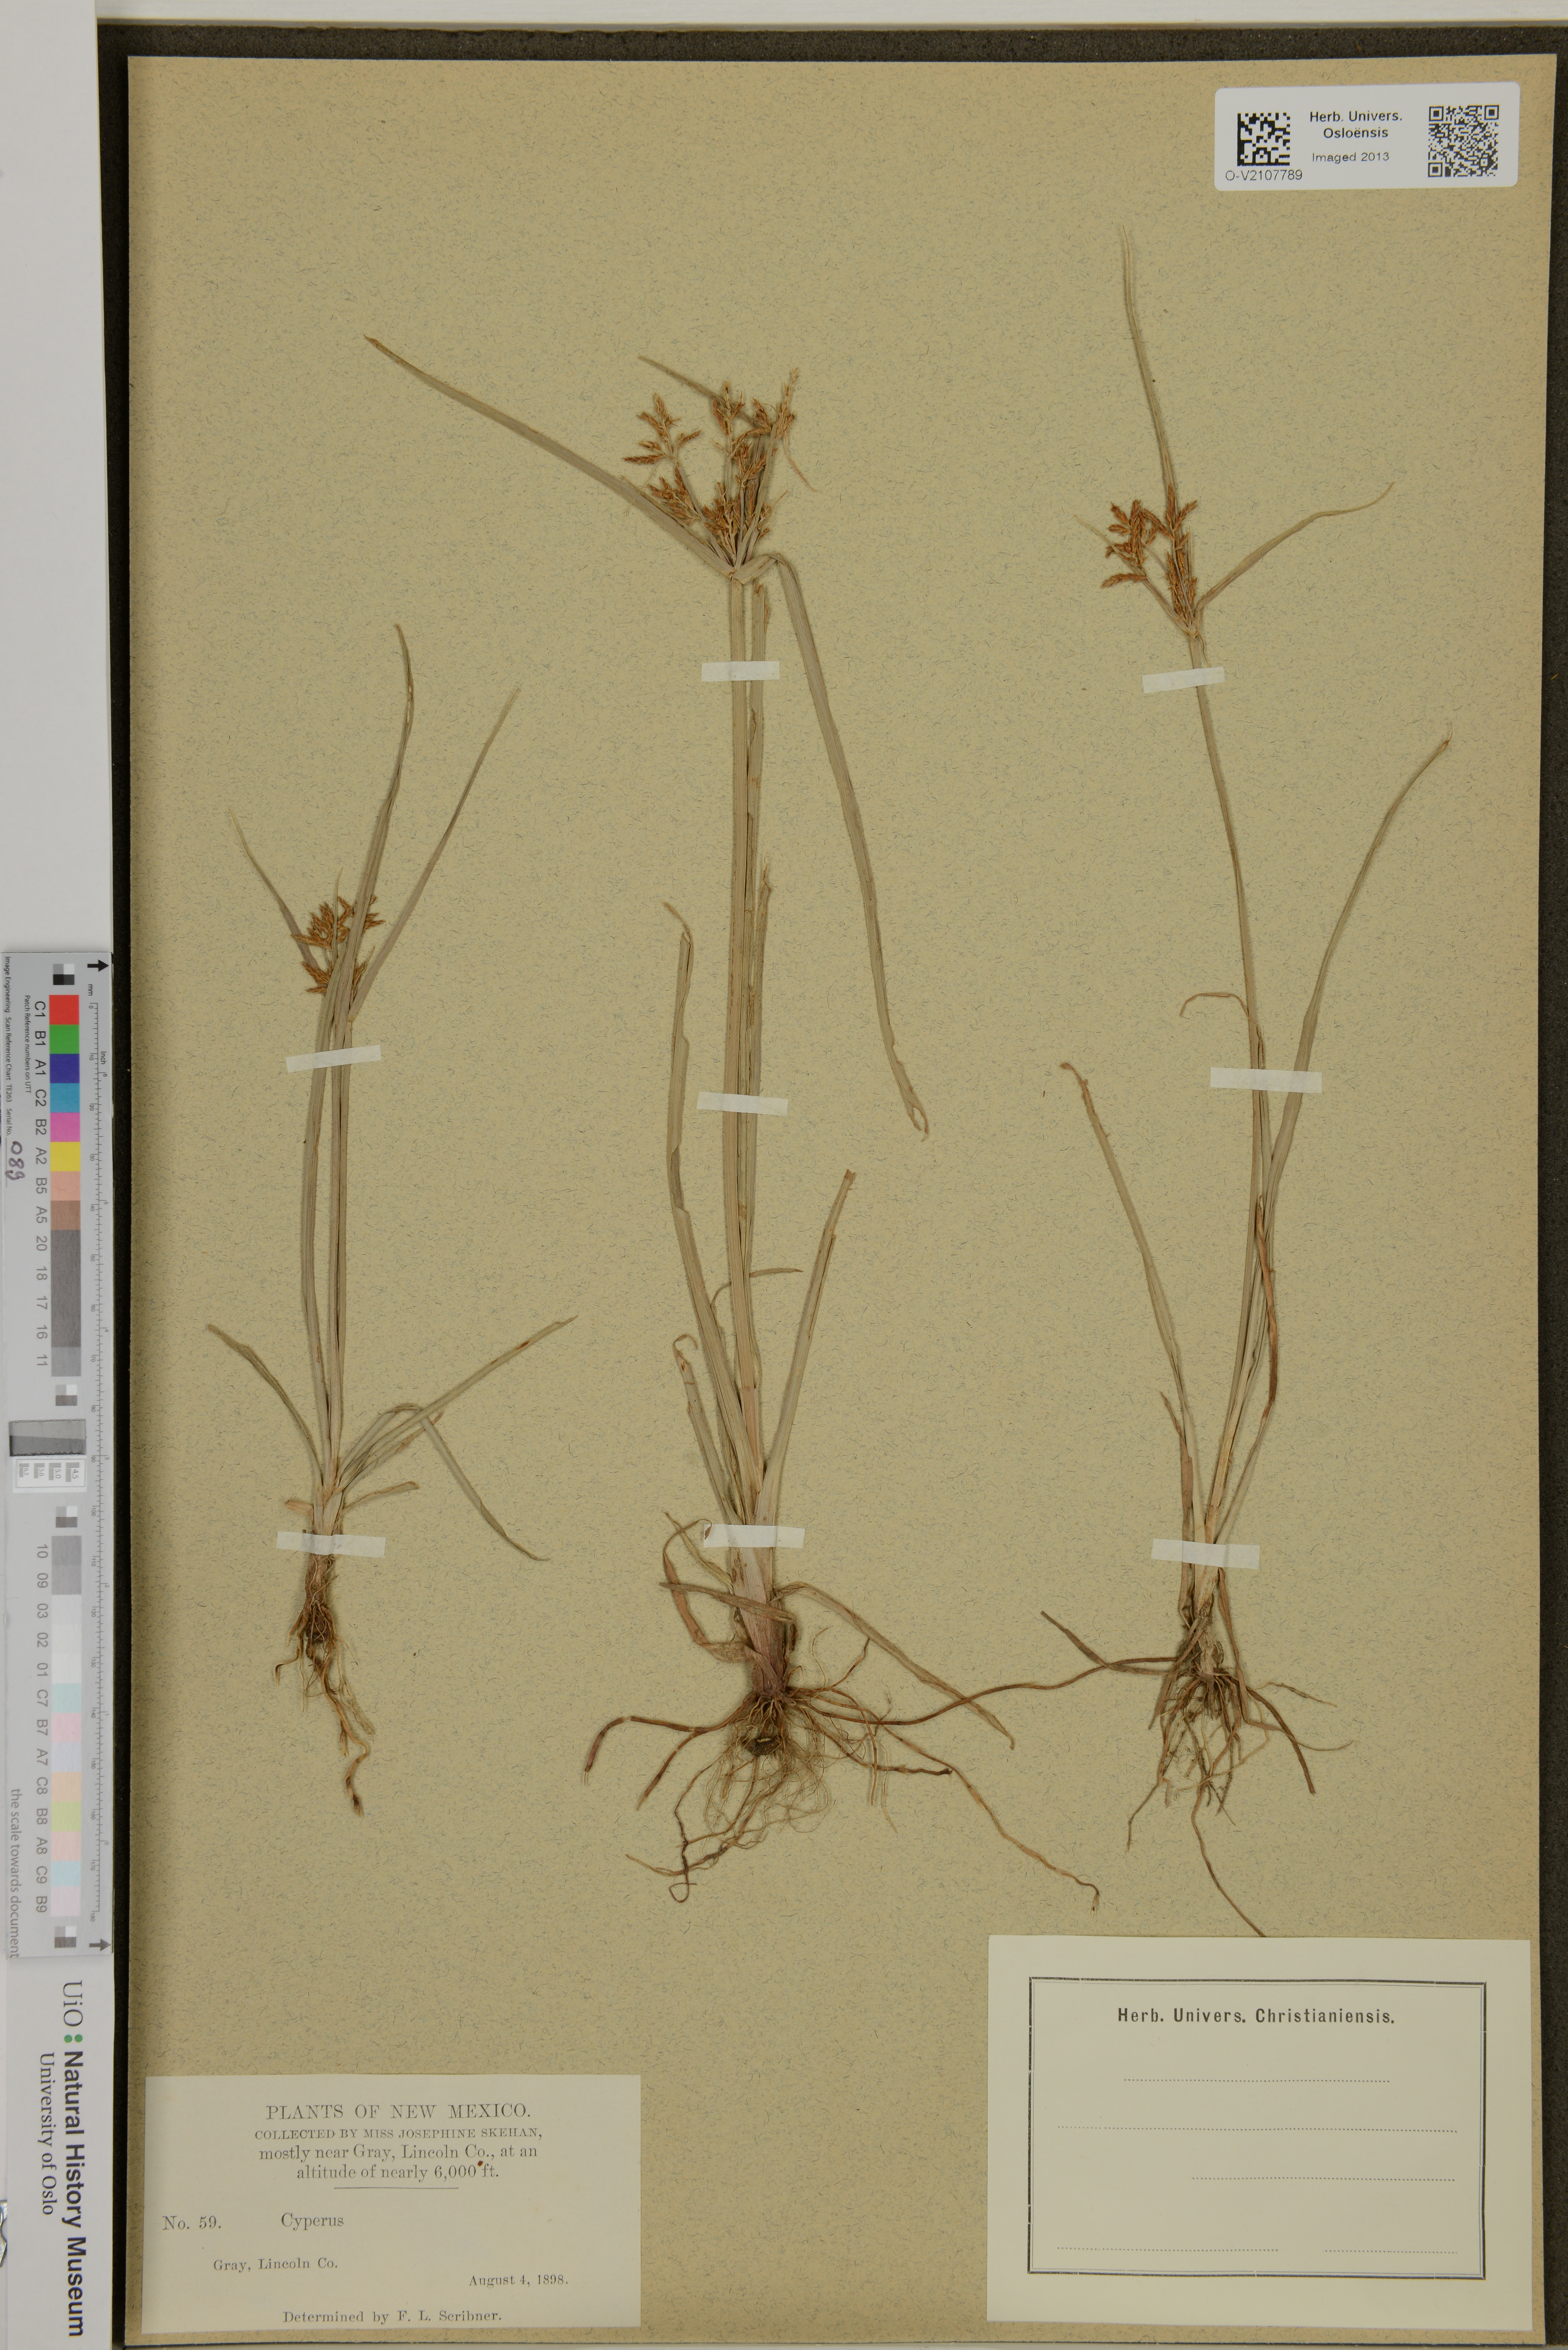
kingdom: Plantae
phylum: Tracheophyta
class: Liliopsida
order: Poales
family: Cyperaceae
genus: Cyperus
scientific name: Cyperus
